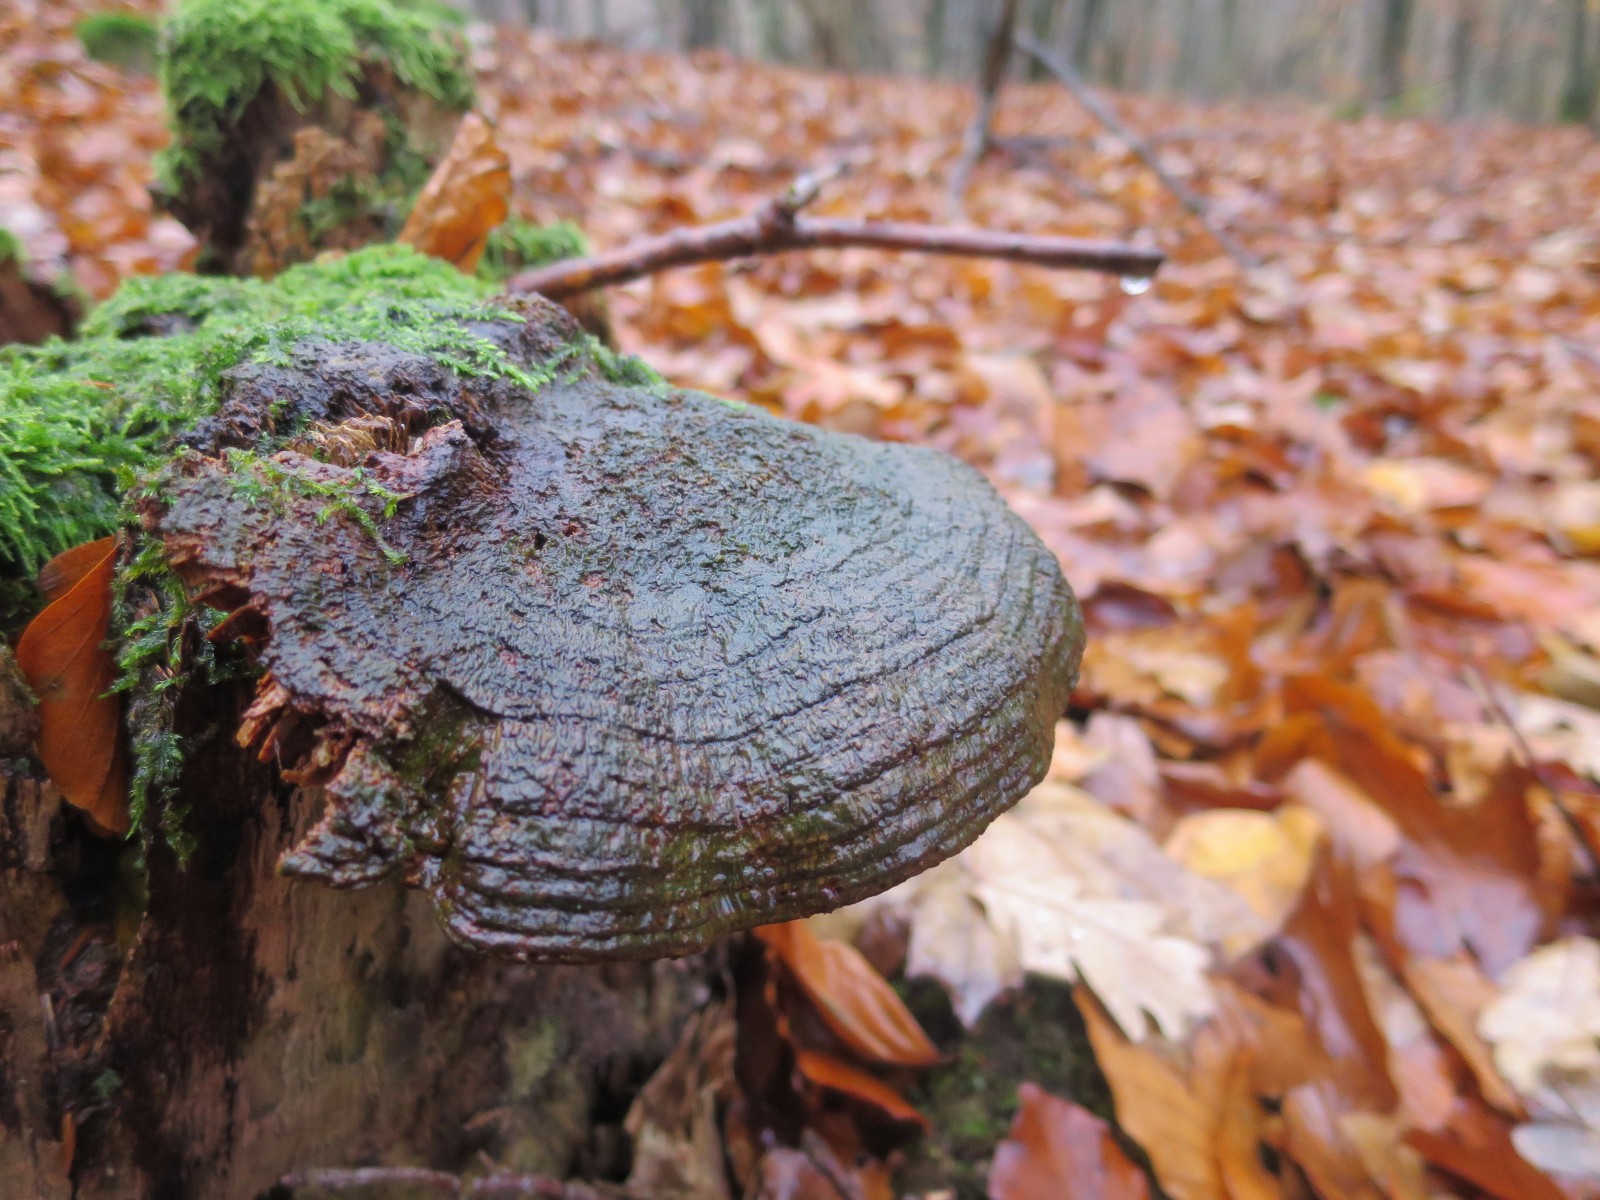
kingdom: Fungi
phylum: Basidiomycota
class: Agaricomycetes
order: Polyporales
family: Fomitopsidaceae
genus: Daedalea
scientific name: Daedalea quercina
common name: ege-labyrintsvamp
